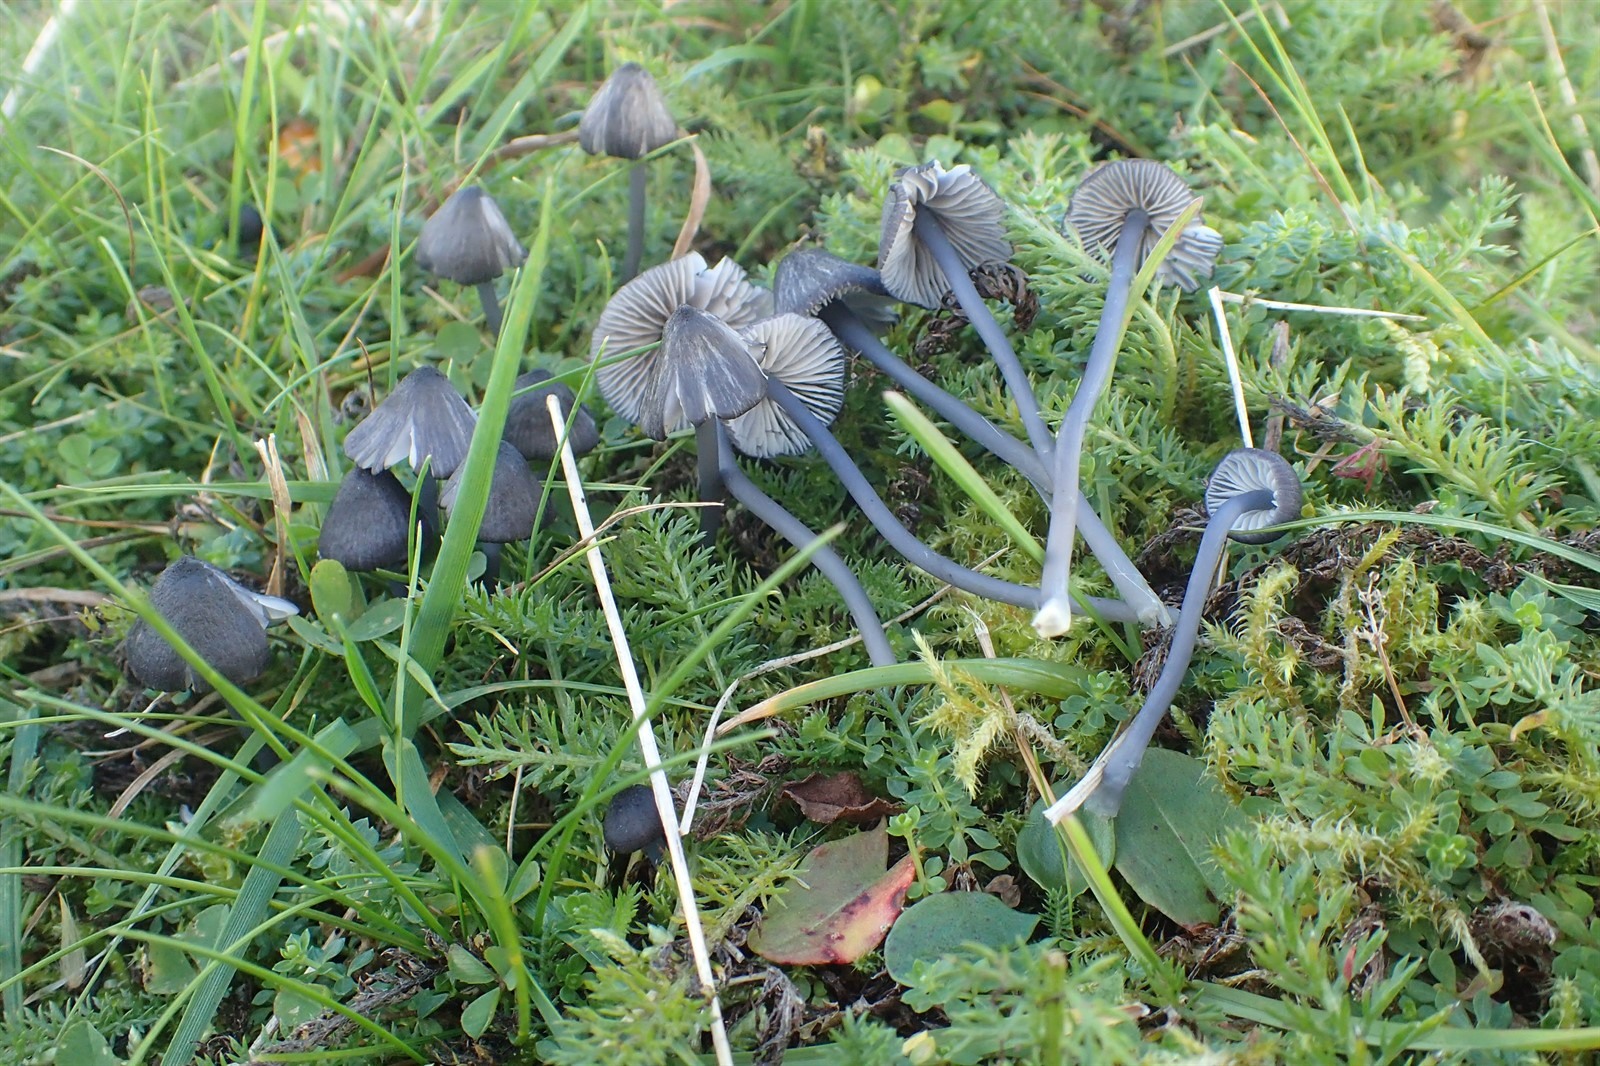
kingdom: Fungi
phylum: Basidiomycota
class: Agaricomycetes
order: Agaricales
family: Entolomataceae
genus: Entoloma
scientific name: Entoloma cyaneolilacinum
